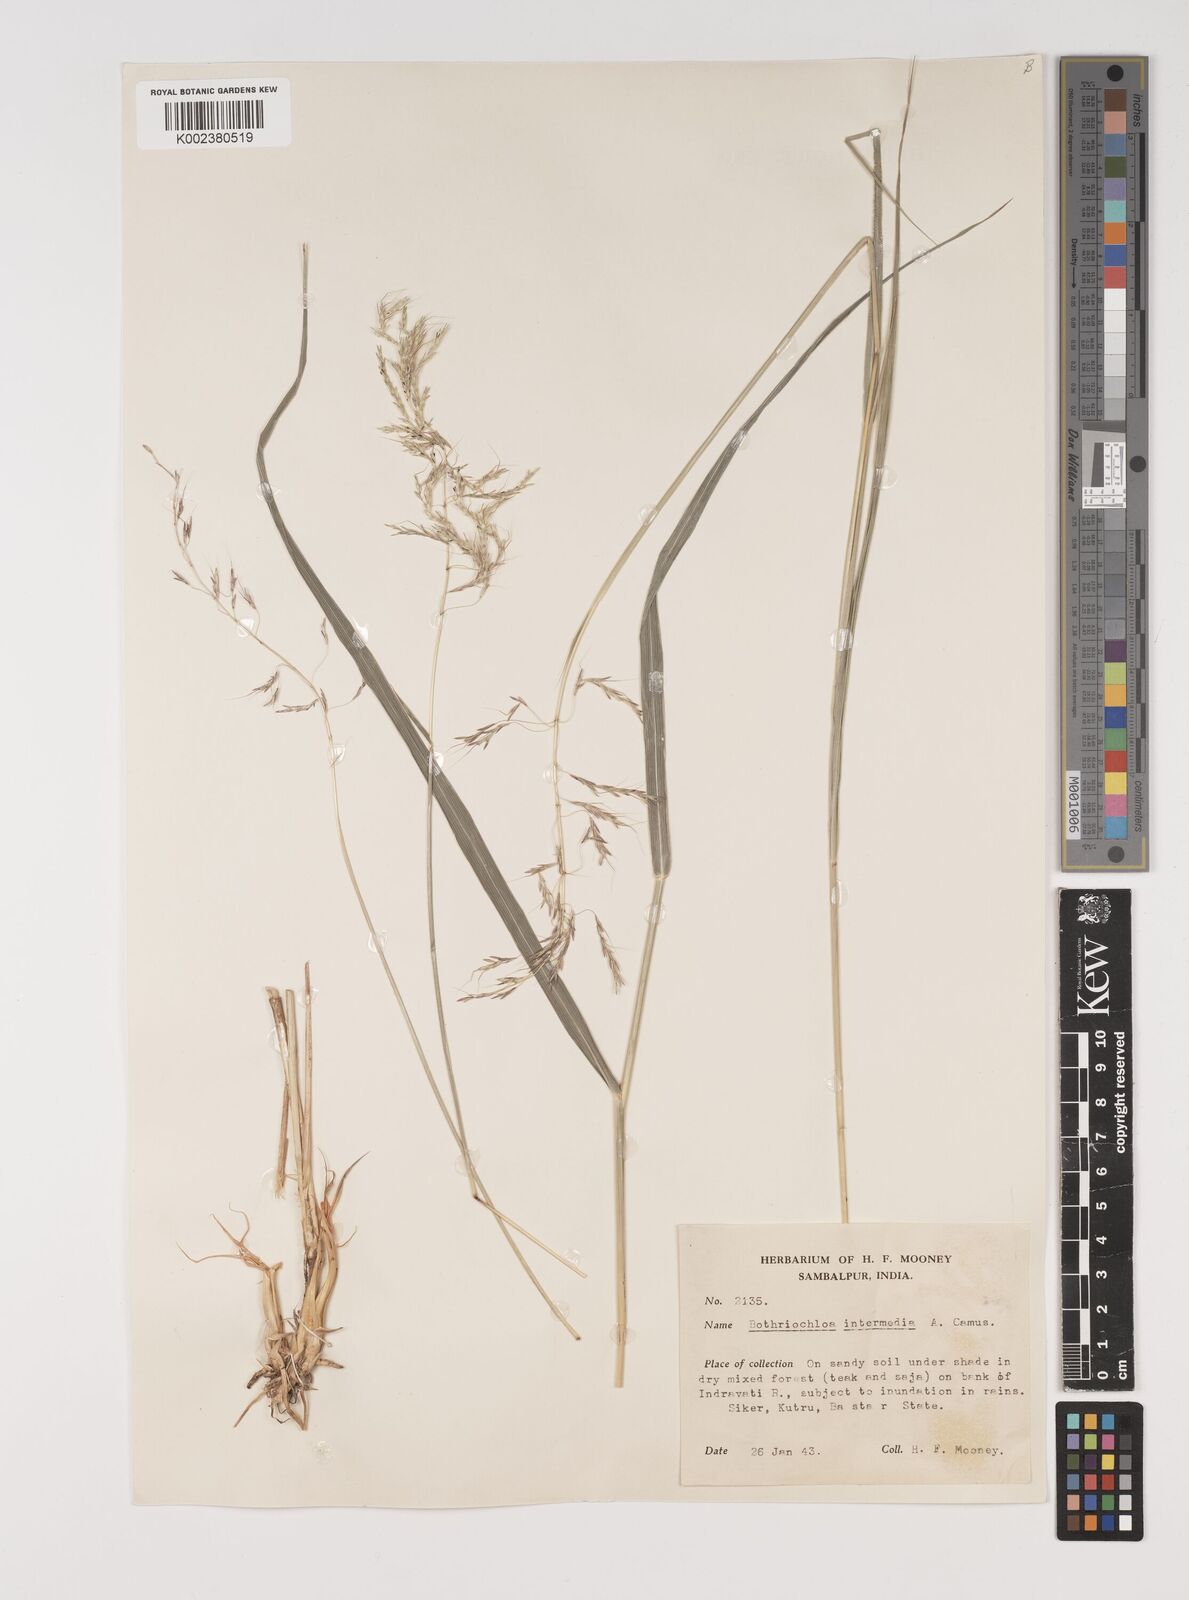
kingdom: Plantae
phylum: Tracheophyta
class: Liliopsida
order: Poales
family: Poaceae
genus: Bothriochloa
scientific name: Bothriochloa bladhii
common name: Caucasian bluestem
